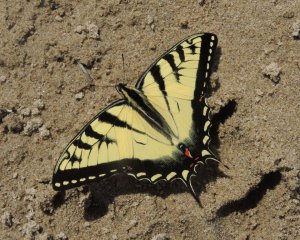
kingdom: Animalia
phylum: Arthropoda
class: Insecta
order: Lepidoptera
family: Papilionidae
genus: Pterourus
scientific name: Pterourus glaucus
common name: Eastern Tiger Swallowtail
